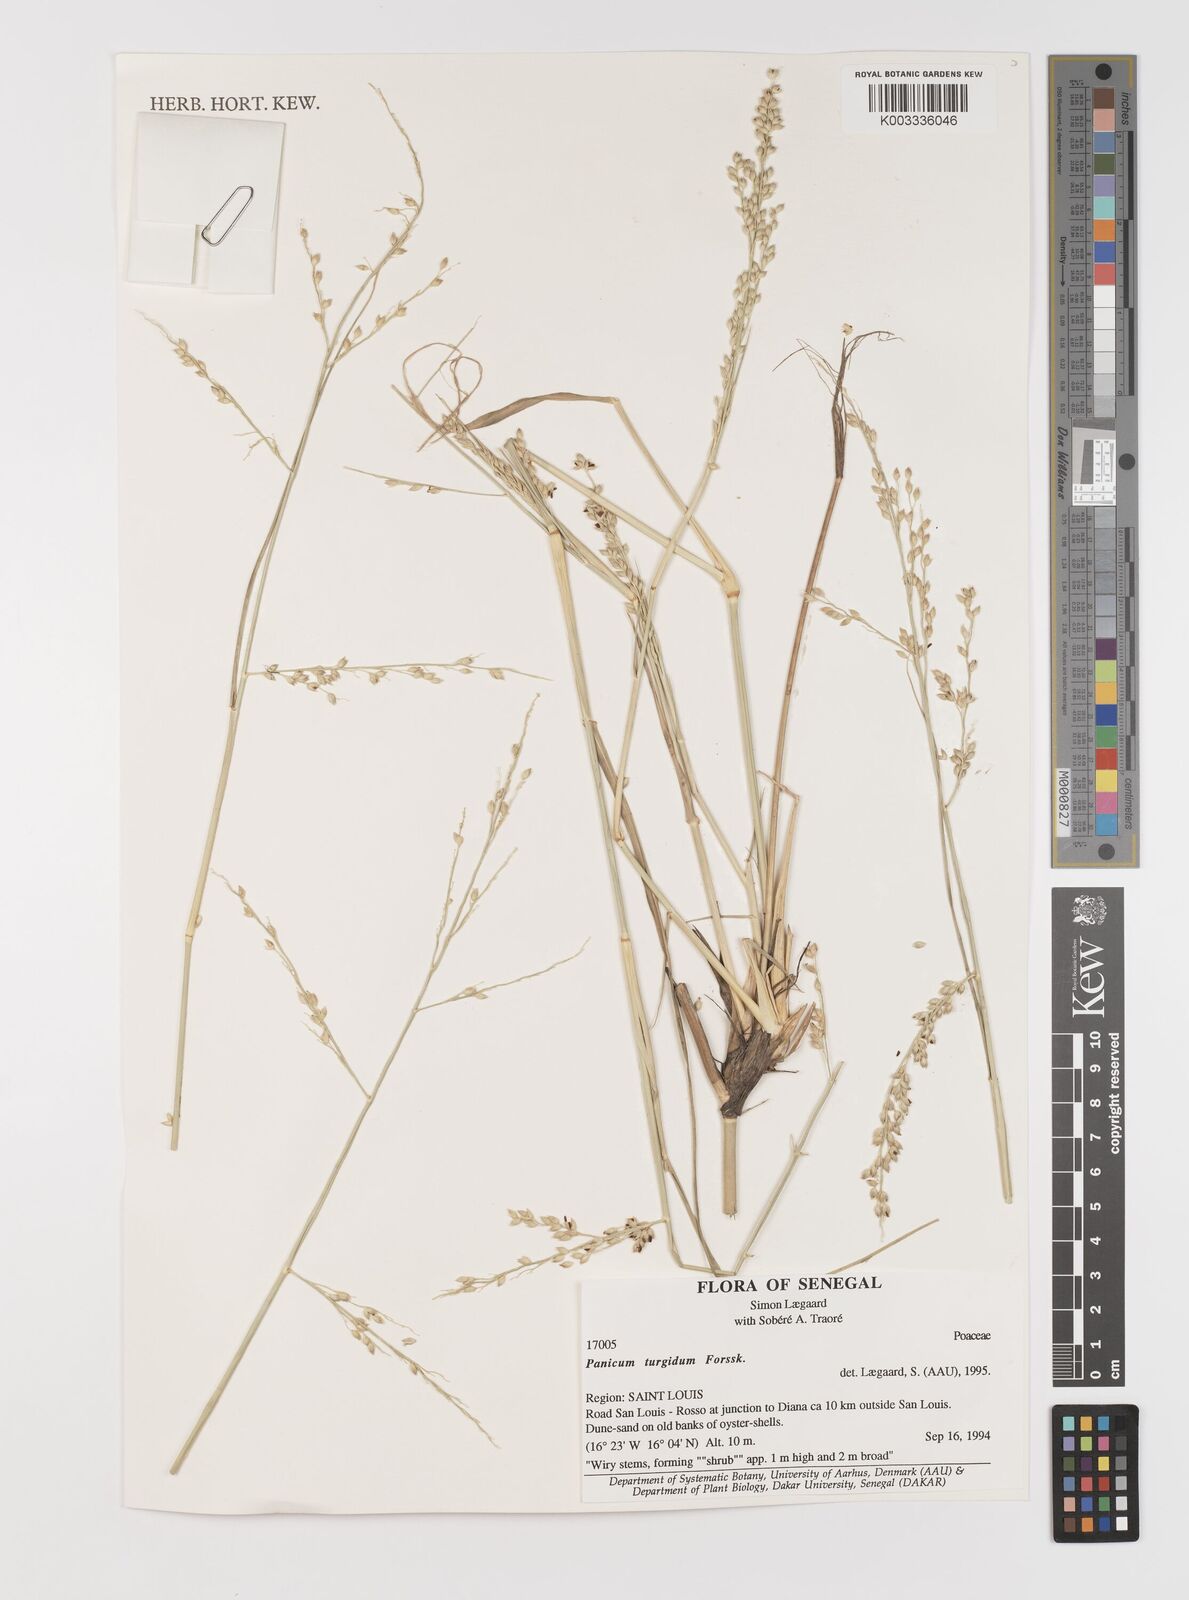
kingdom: Plantae
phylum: Tracheophyta
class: Liliopsida
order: Poales
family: Poaceae
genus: Panicum
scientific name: Panicum turgidum
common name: Desert grass
